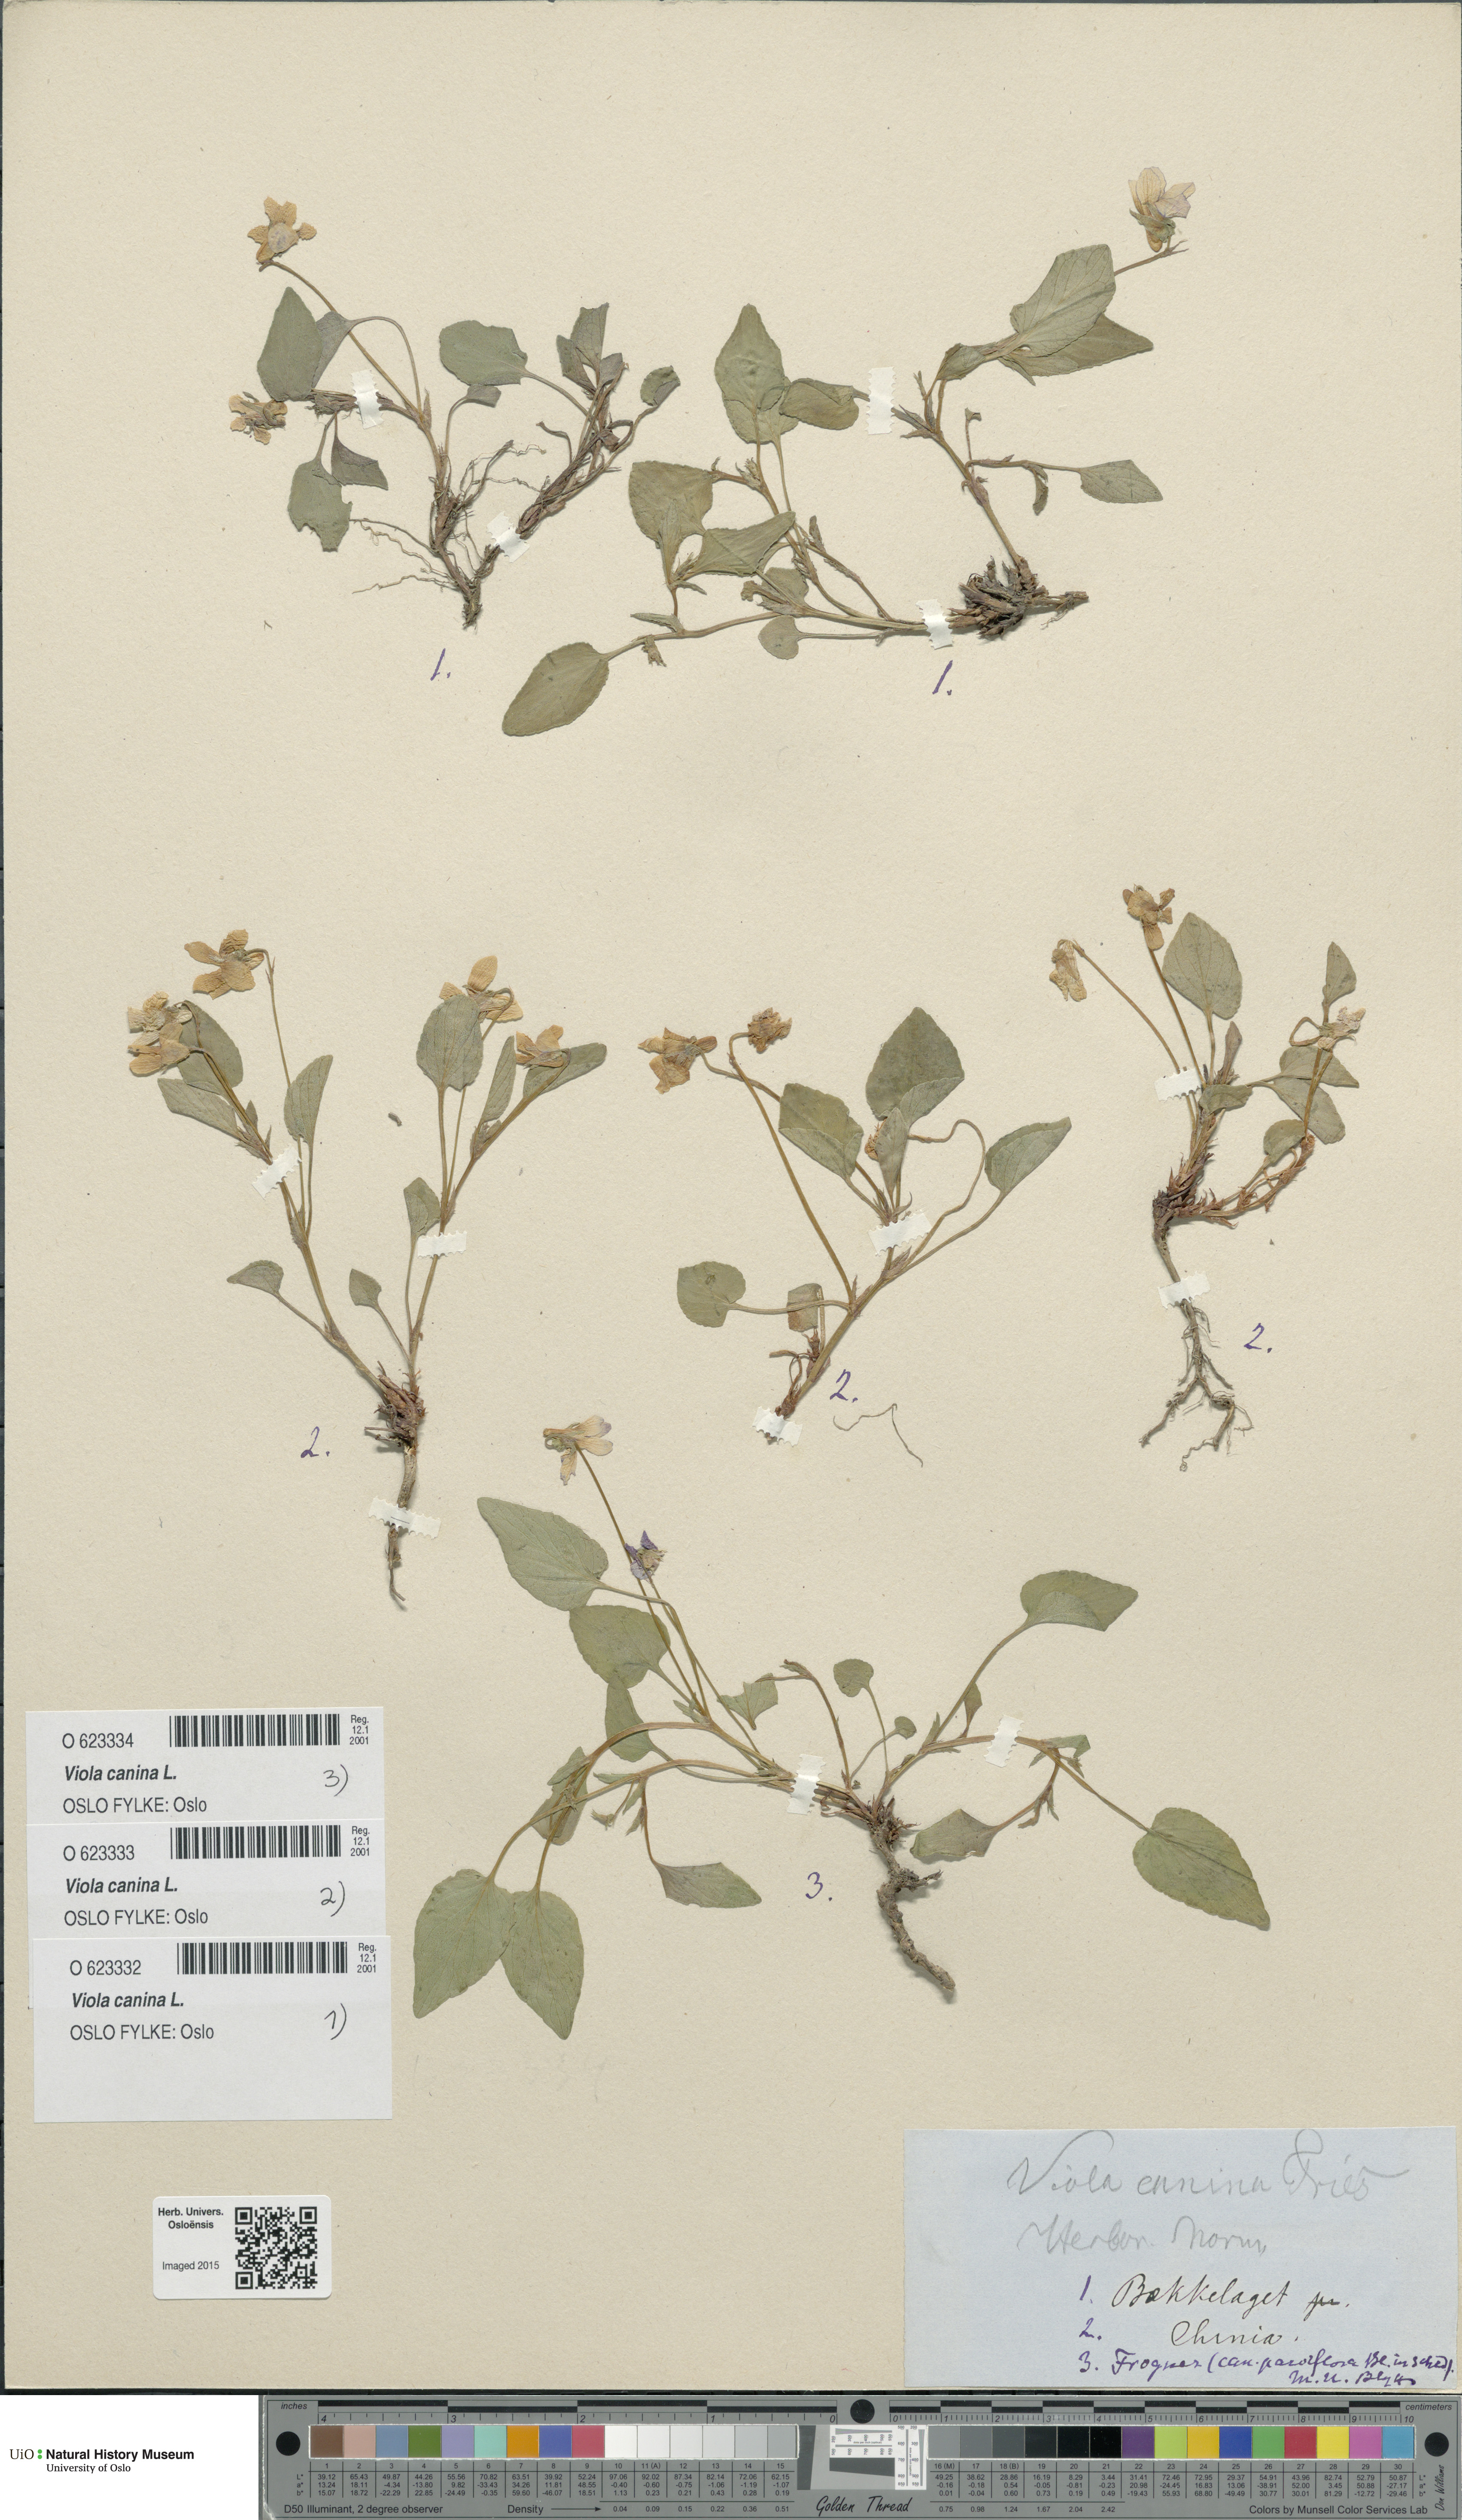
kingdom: Plantae
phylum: Tracheophyta
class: Magnoliopsida
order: Malpighiales
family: Violaceae
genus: Viola
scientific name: Viola canina
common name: Heath dog-violet
